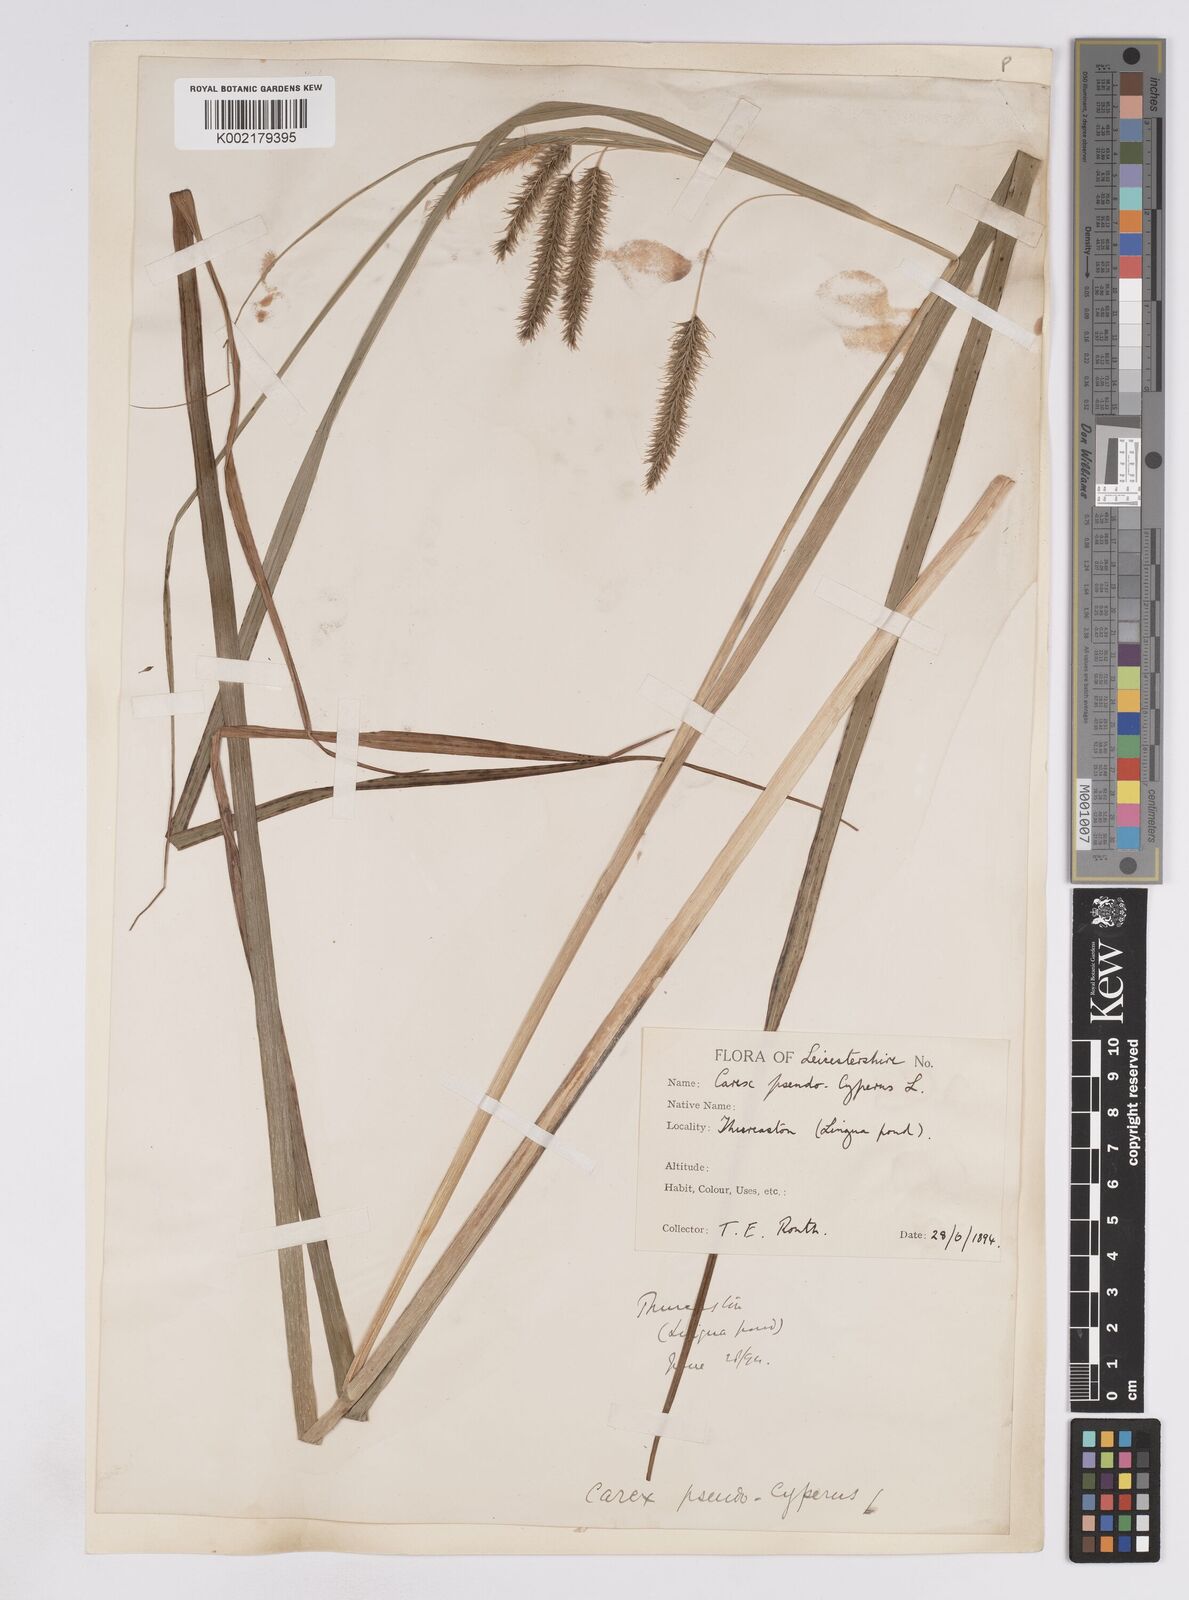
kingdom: Plantae
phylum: Tracheophyta
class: Liliopsida
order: Poales
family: Cyperaceae
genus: Carex
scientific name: Carex pseudocyperus
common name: Cyperus sedge
